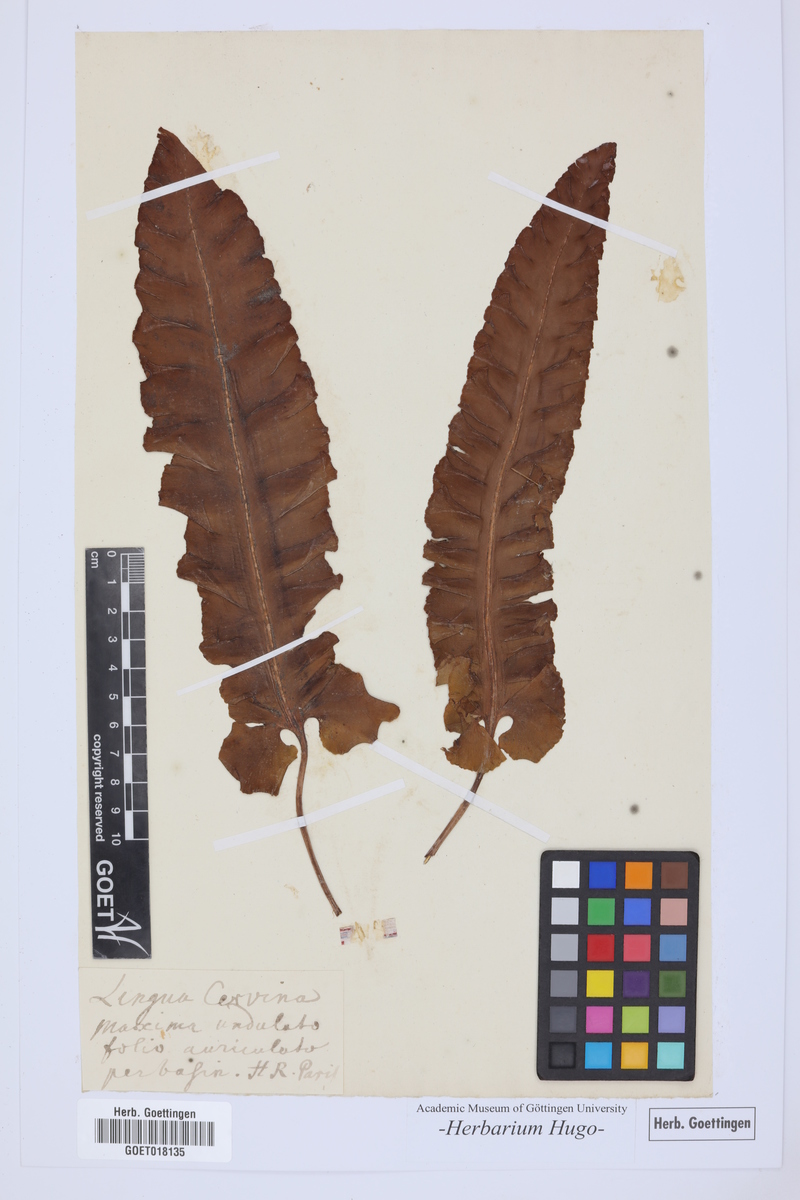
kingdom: Plantae
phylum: Tracheophyta
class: Polypodiopsida
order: Polypodiales
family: Aspleniaceae
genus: Asplenium
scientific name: Asplenium scolopendrium
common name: Hart's-tongue fern
